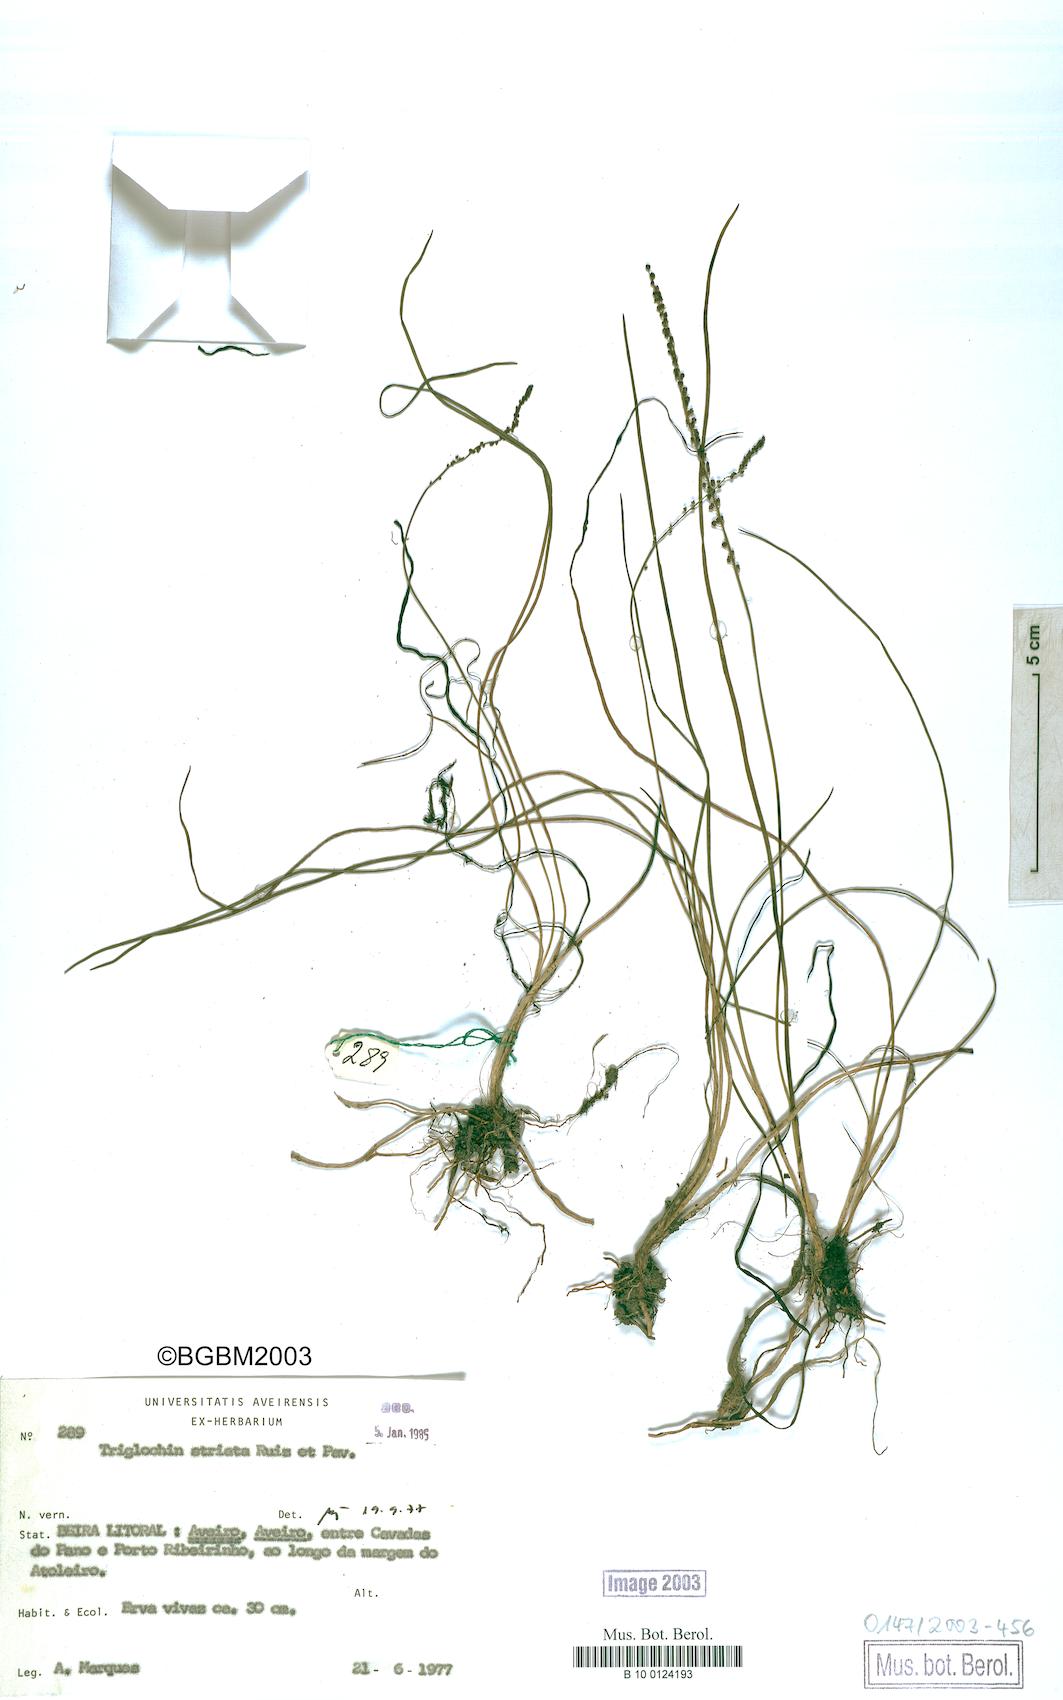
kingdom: Plantae
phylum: Tracheophyta
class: Liliopsida
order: Alismatales
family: Juncaginaceae
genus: Triglochin
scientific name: Triglochin striata
